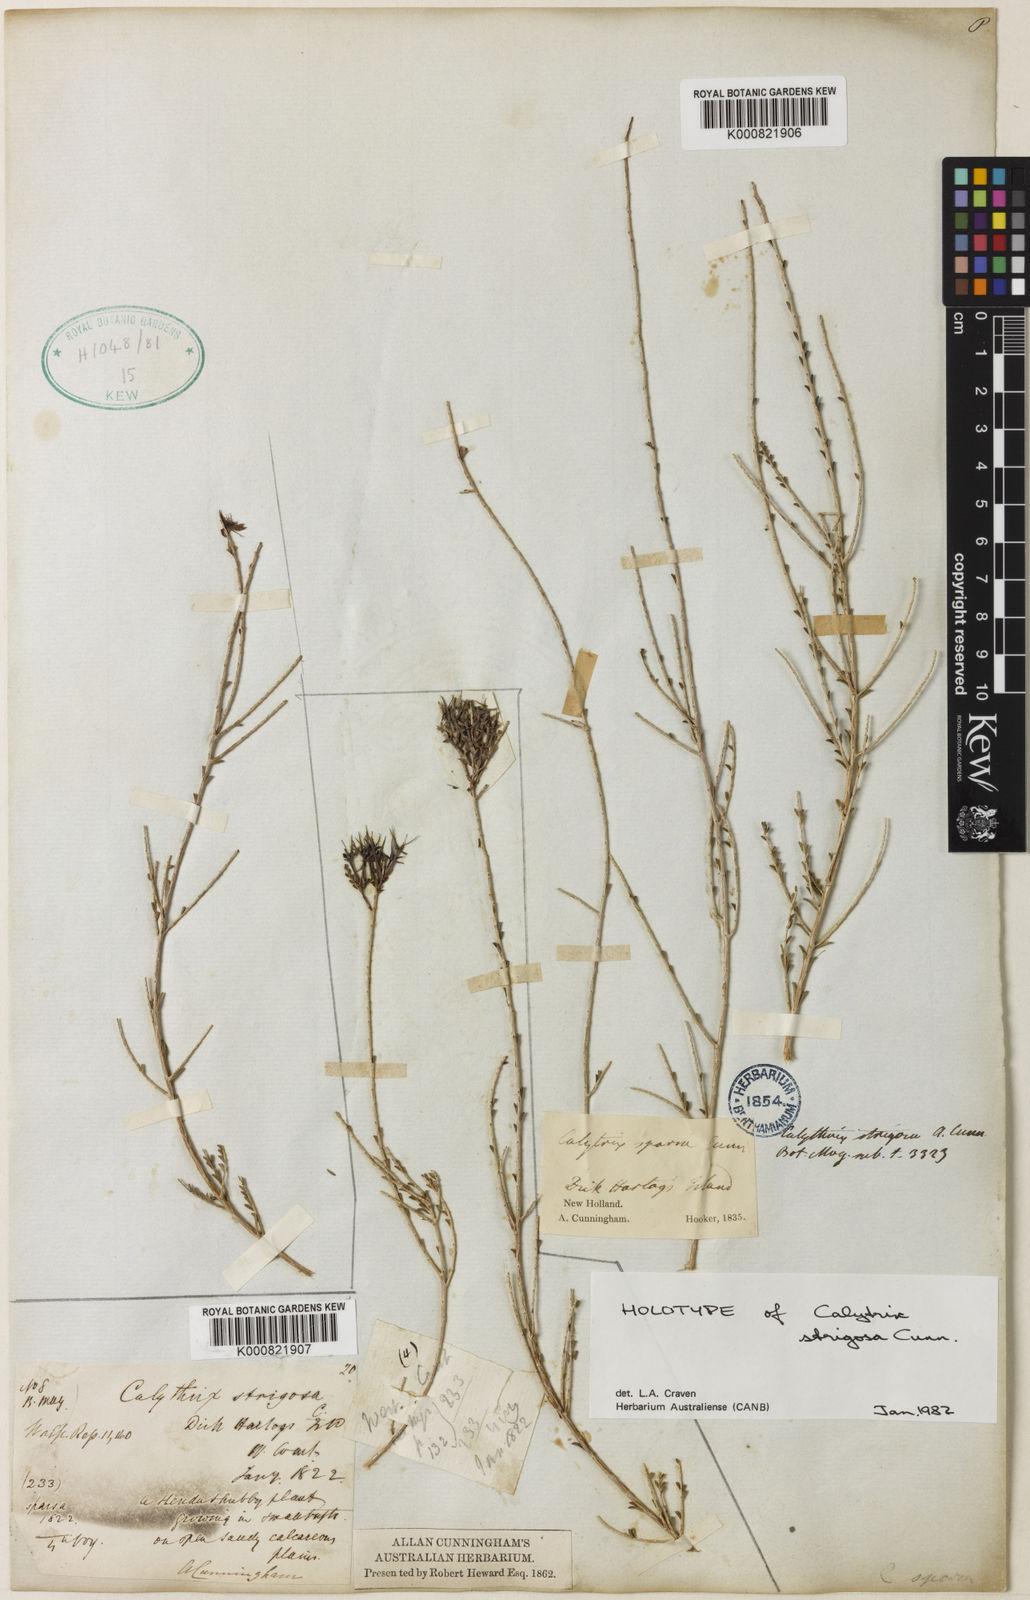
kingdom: Plantae
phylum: Tracheophyta
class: Magnoliopsida
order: Myrtales
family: Myrtaceae
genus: Calytrix
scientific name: Calytrix strigosa
